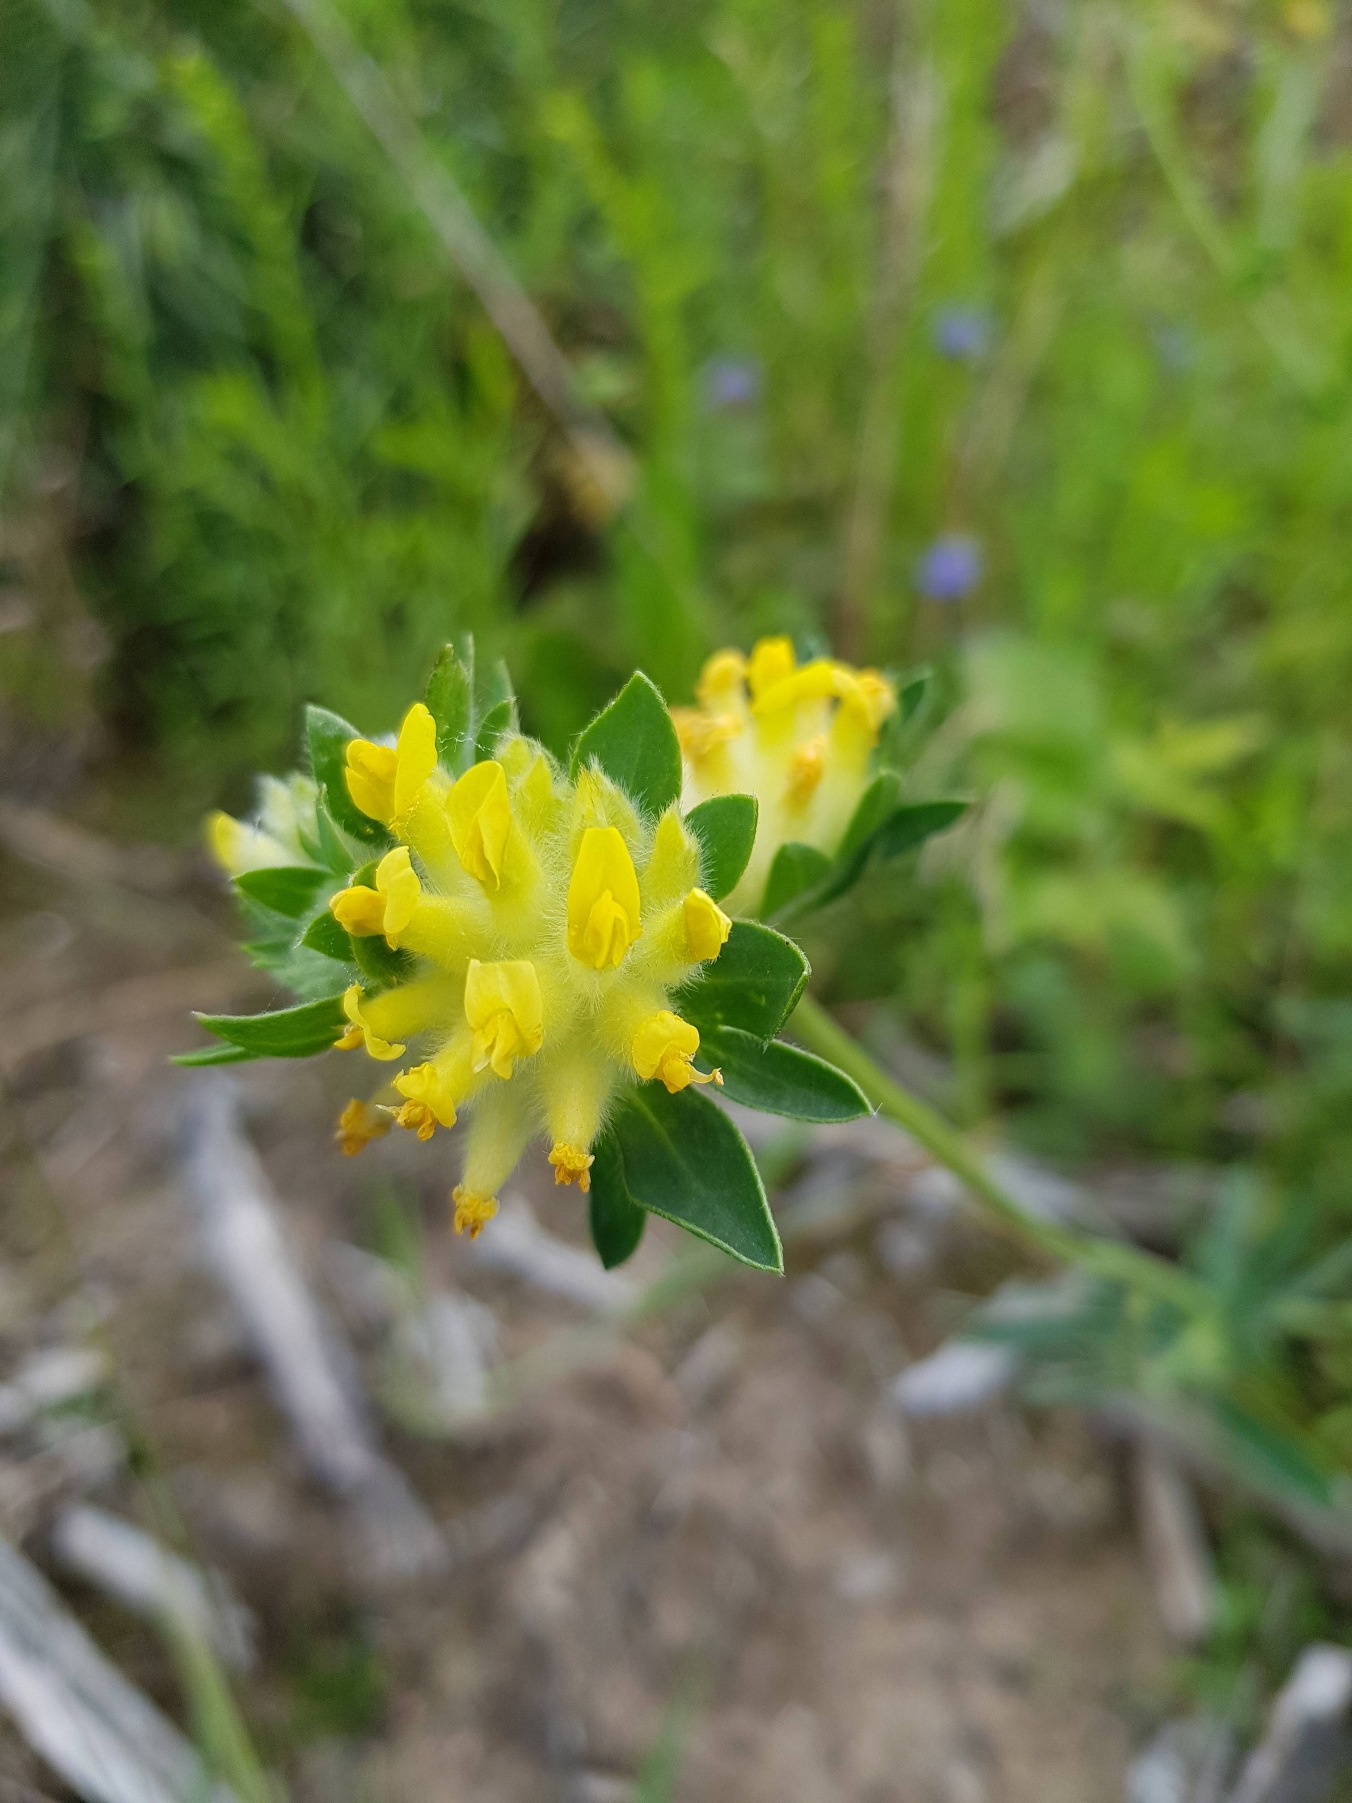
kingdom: Plantae
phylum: Tracheophyta
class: Magnoliopsida
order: Fabales
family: Fabaceae
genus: Anthyllis
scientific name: Anthyllis vulneraria
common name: Rundbælg
